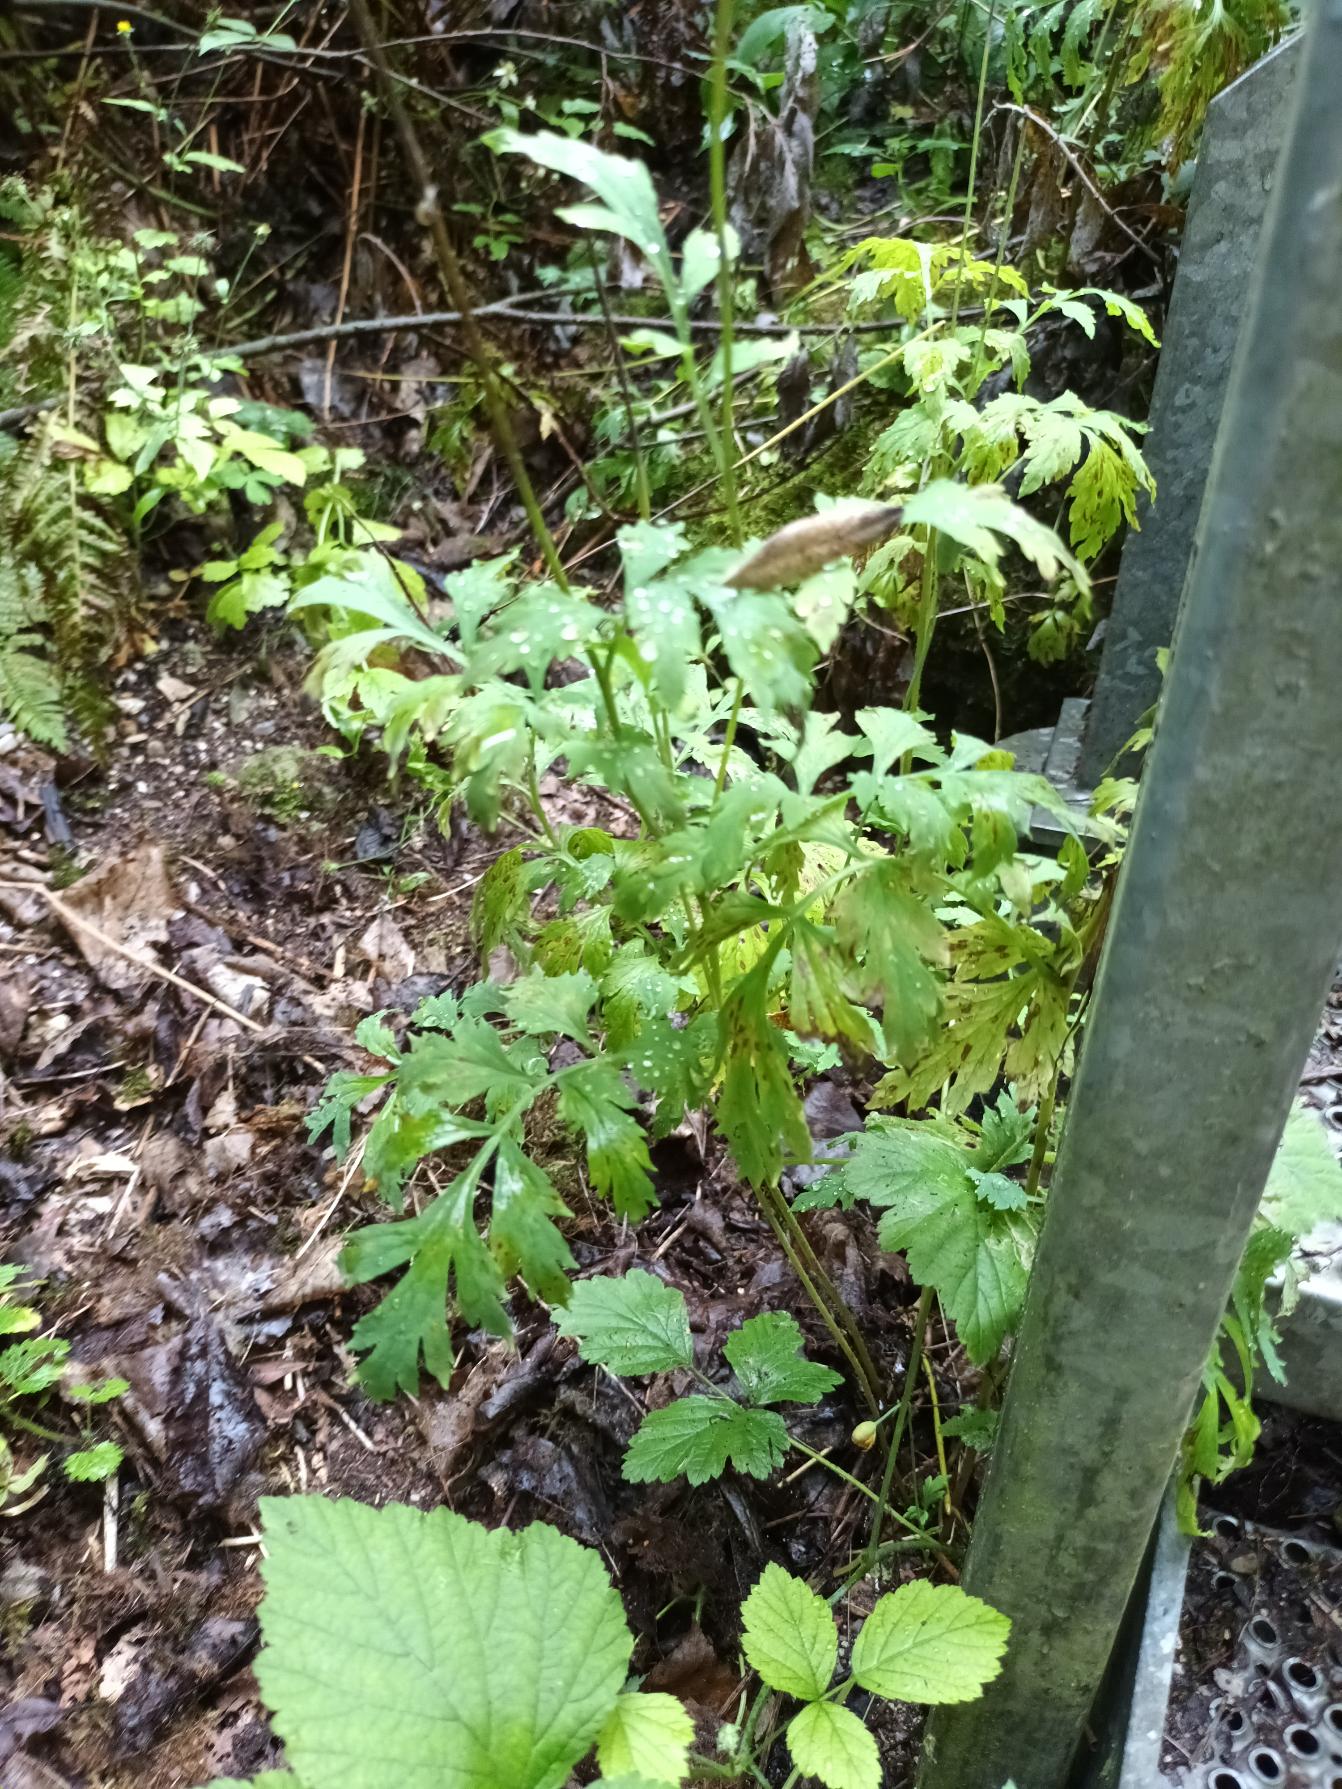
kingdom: Plantae
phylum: Tracheophyta
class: Magnoliopsida
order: Ranunculales
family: Papaveraceae
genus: Papaver
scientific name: Papaver cambricum
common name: Skov-valmue
